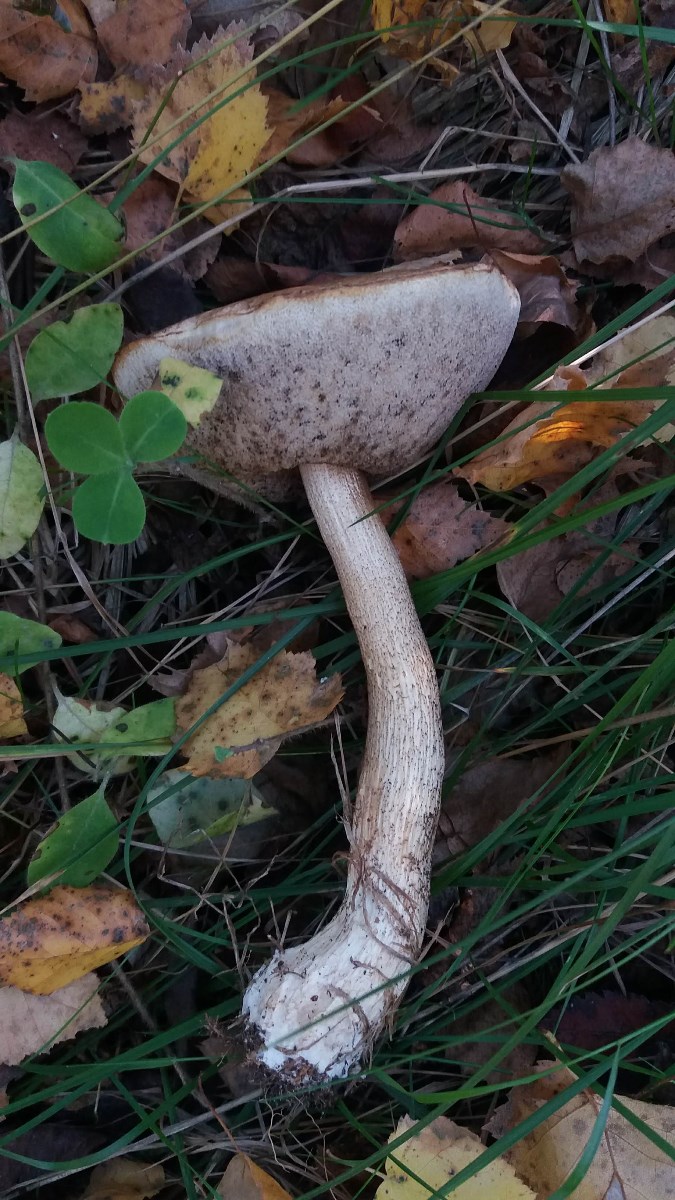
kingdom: Fungi
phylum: Basidiomycota
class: Agaricomycetes
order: Boletales
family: Boletaceae
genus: Leccinum
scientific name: Leccinum scabrum
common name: brun skælrørhat
